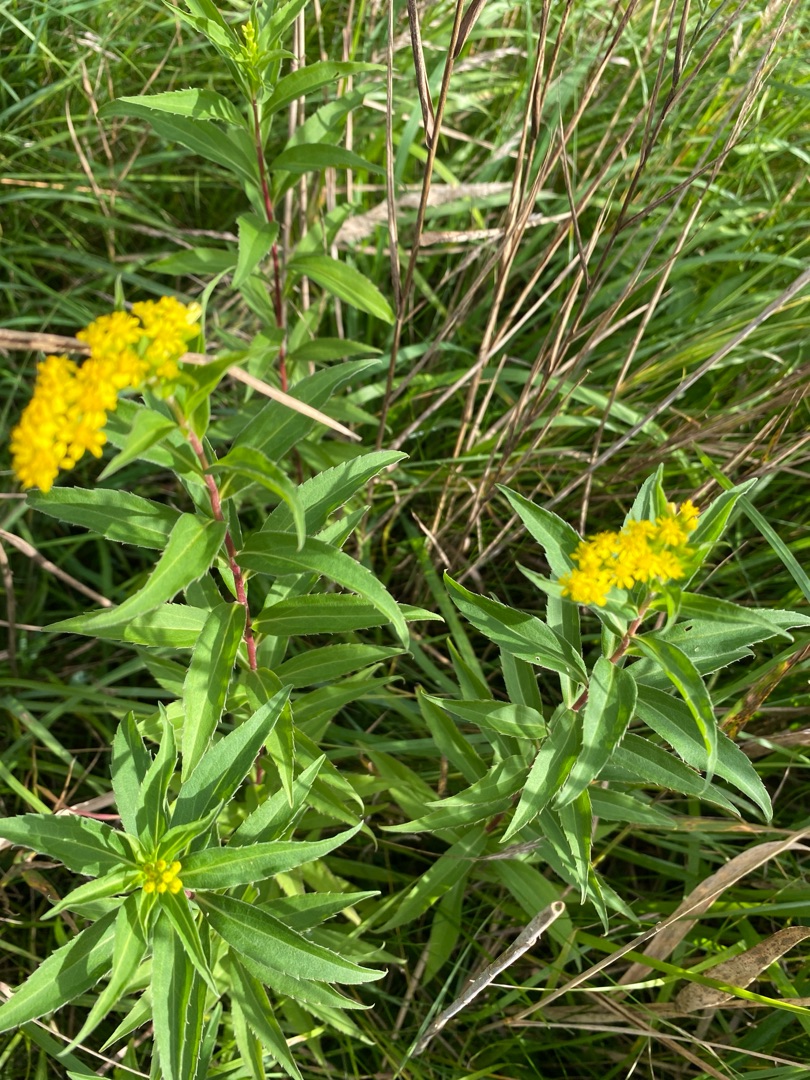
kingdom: Plantae
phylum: Tracheophyta
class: Magnoliopsida
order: Asterales
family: Asteraceae
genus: Solidago
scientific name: Solidago gigantea
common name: Sildig gyldenris
